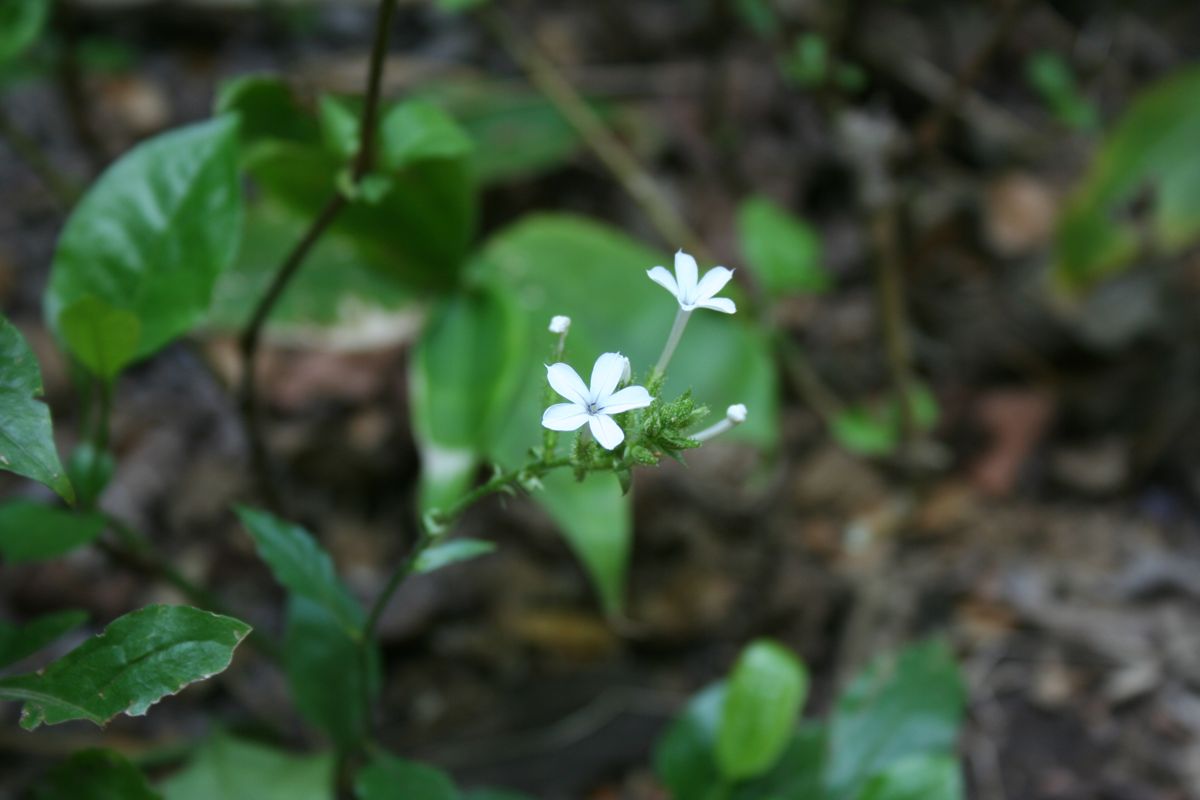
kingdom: Plantae
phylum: Tracheophyta
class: Magnoliopsida
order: Caryophyllales
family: Plumbaginaceae
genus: Plumbago
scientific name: Plumbago zeylanica
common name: Doctorbush
